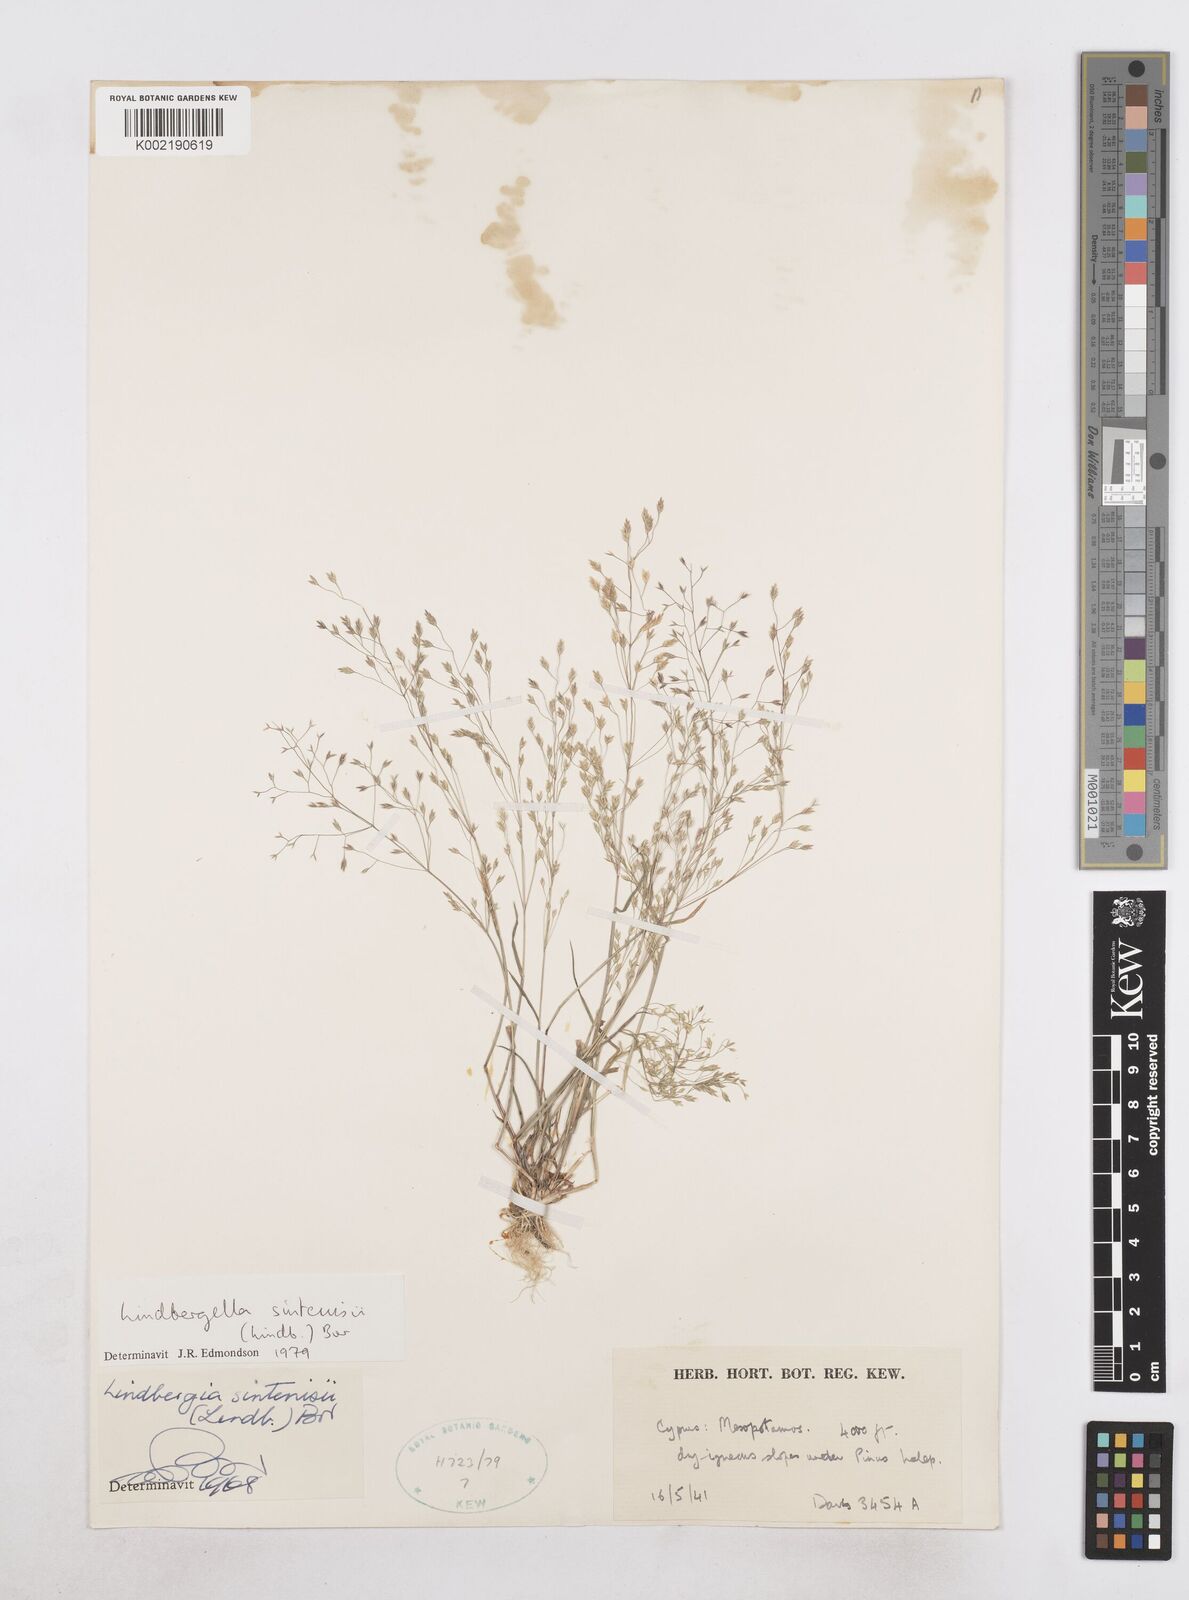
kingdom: Plantae
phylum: Tracheophyta
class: Liliopsida
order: Poales
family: Poaceae
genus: Poa
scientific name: Poa sintenisii
